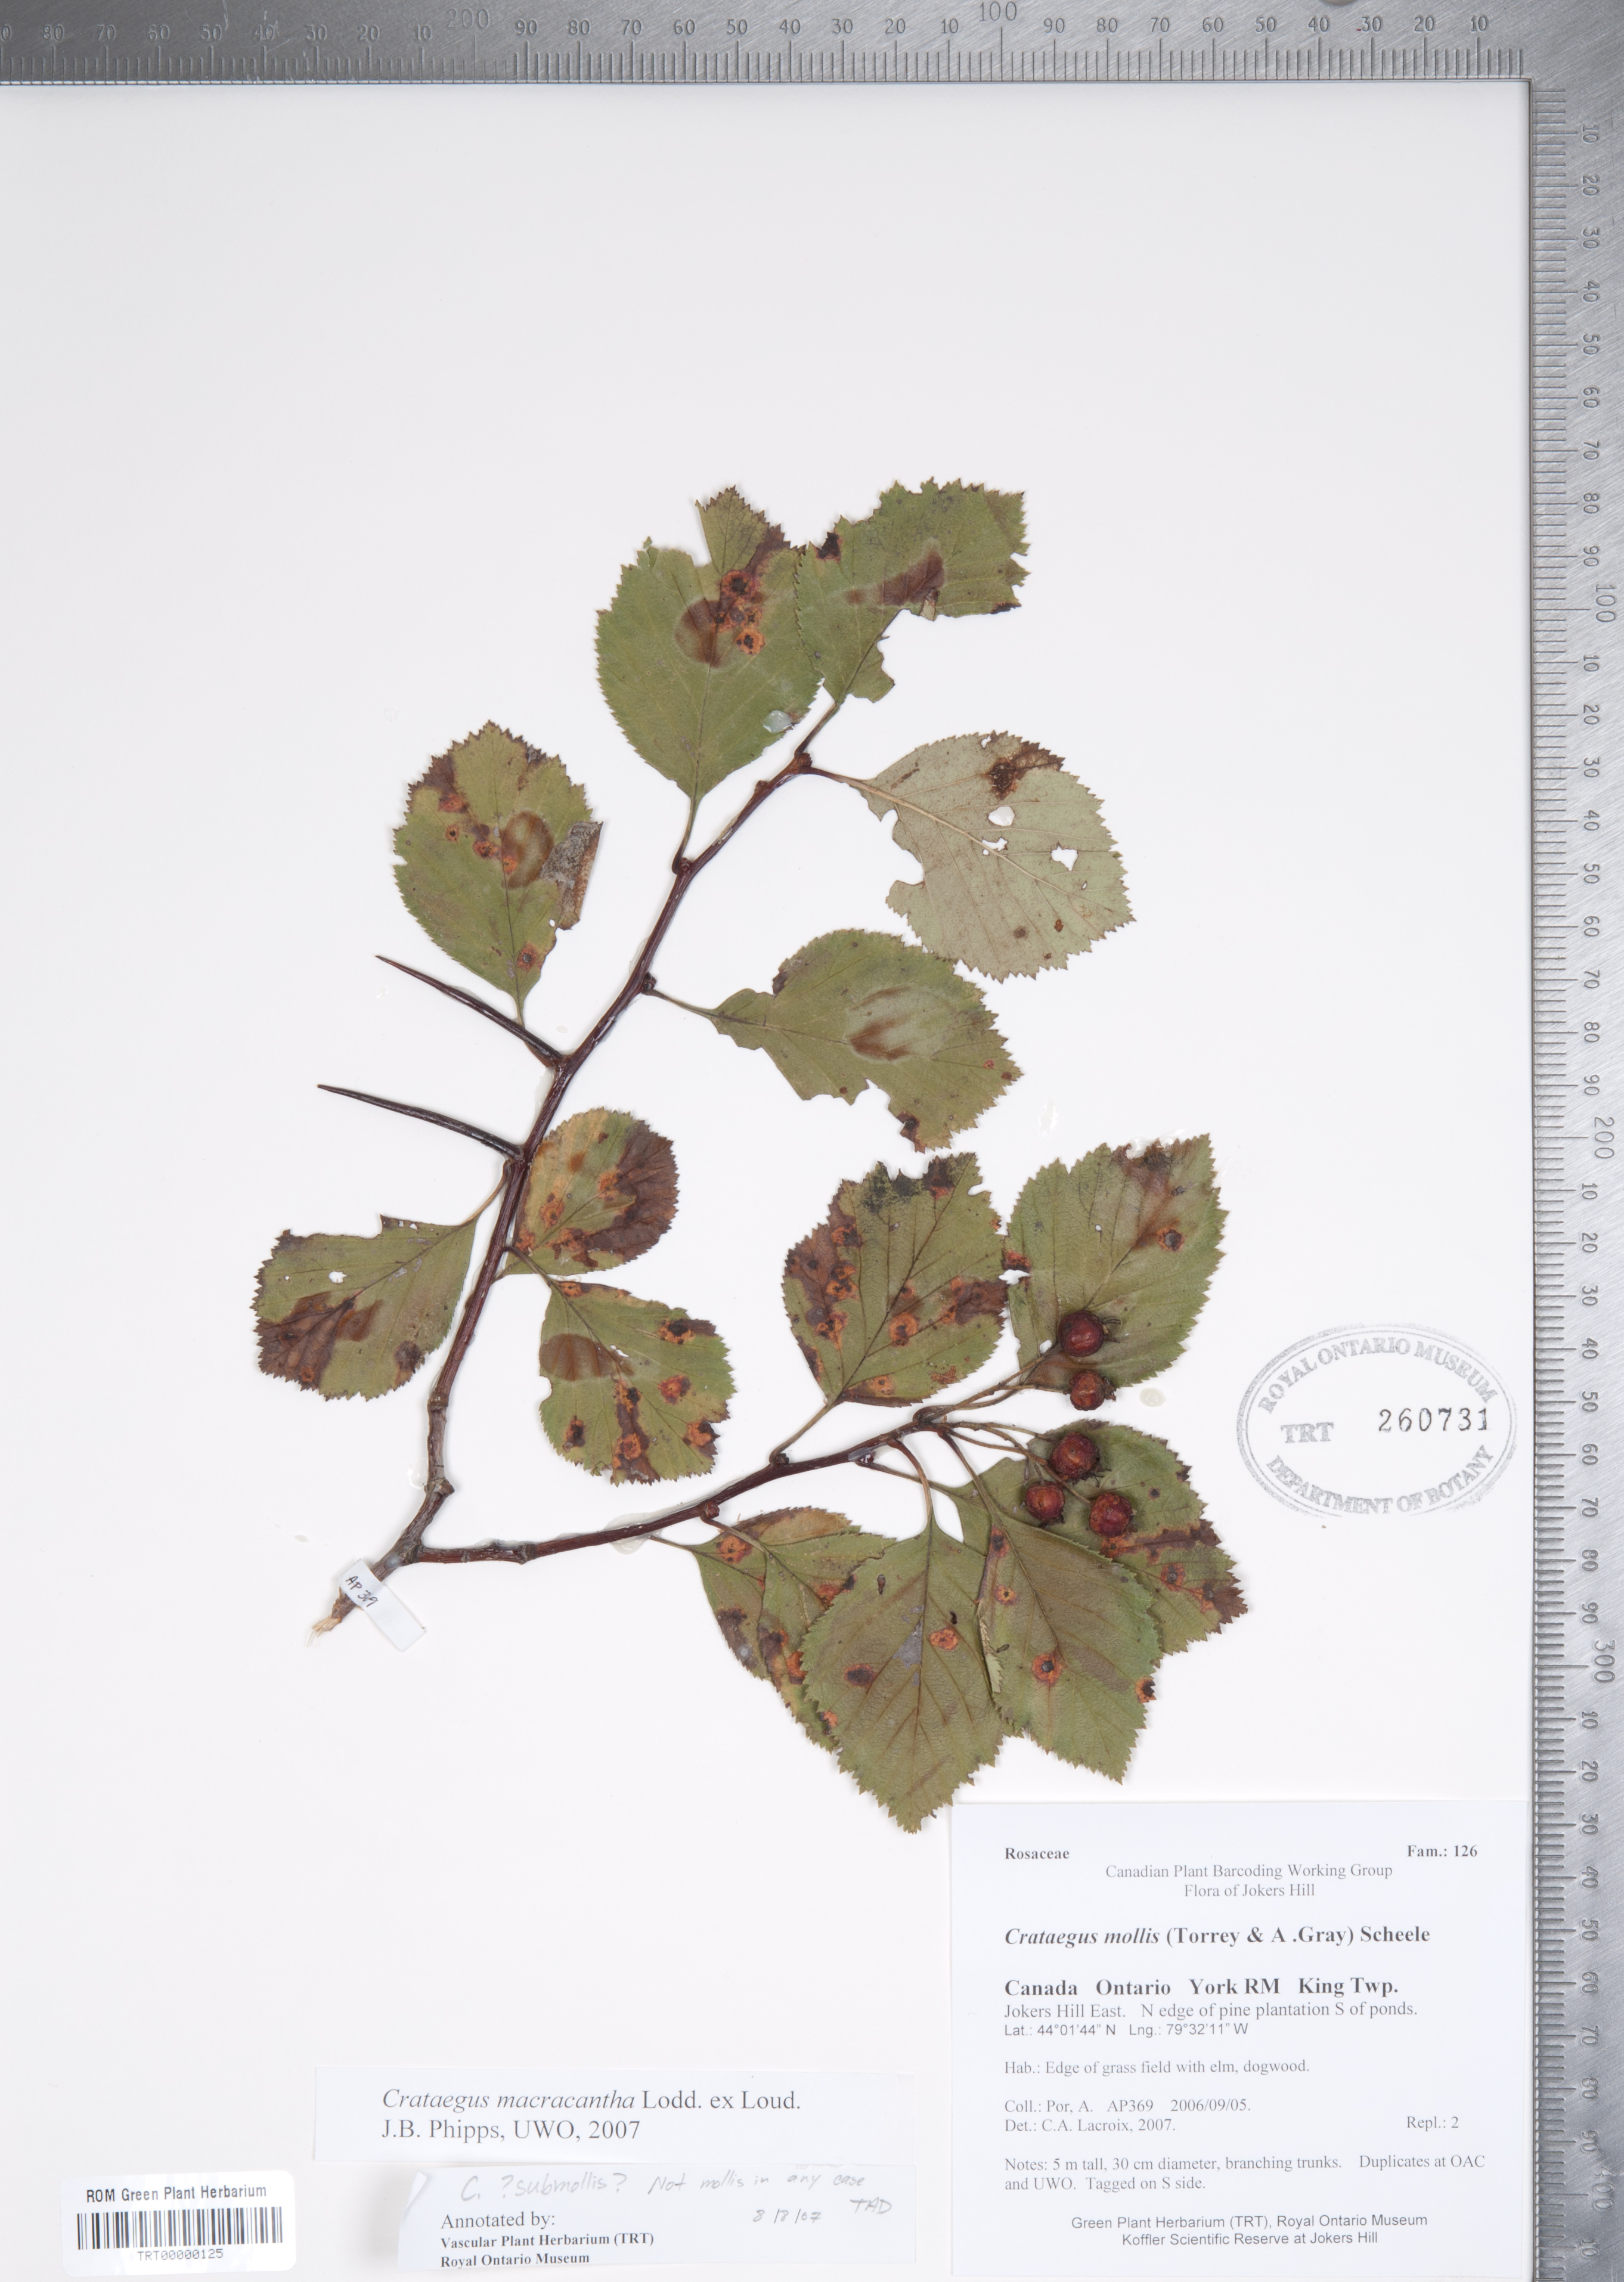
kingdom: Plantae
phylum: Tracheophyta
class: Magnoliopsida
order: Rosales
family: Rosaceae
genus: Crataegus
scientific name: Crataegus macracantha
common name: Large-thorn hawthorn
